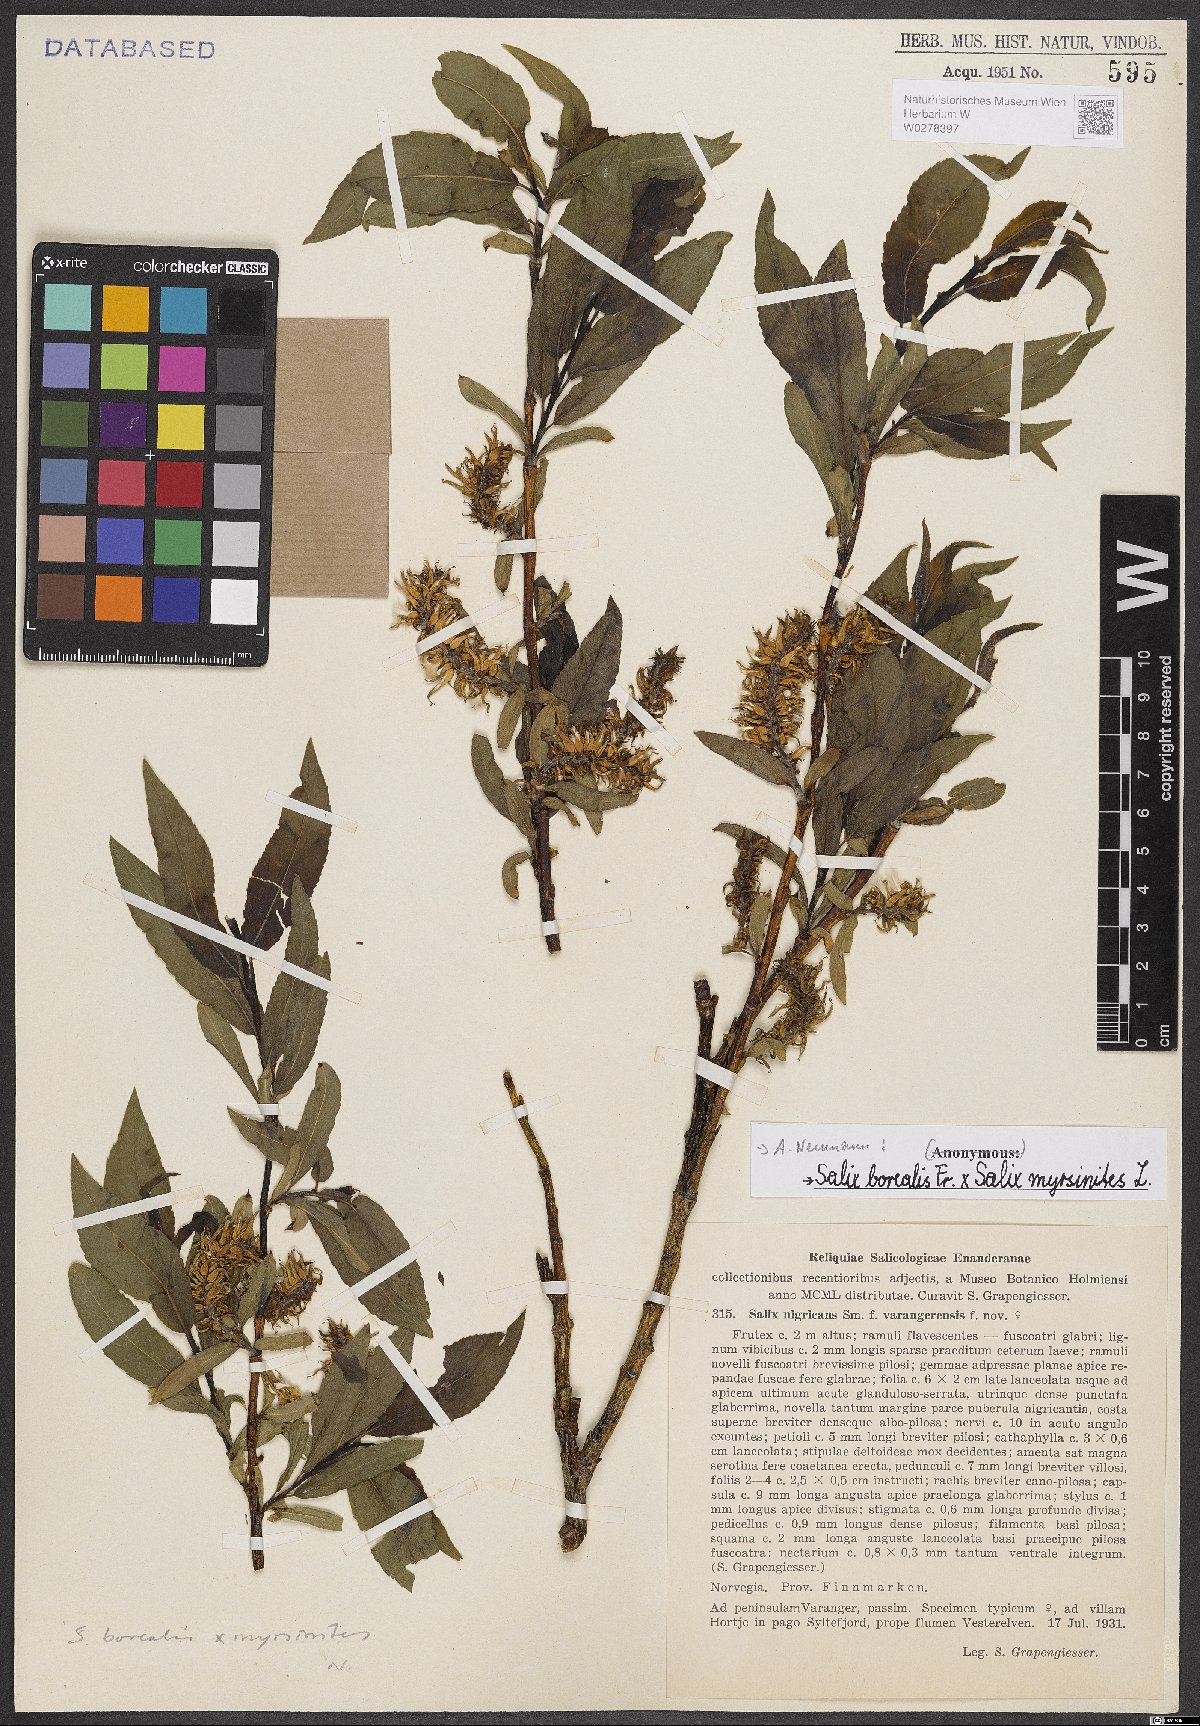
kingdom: Plantae
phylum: Tracheophyta
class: Magnoliopsida
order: Malpighiales
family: Salicaceae
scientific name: Salicaceae
